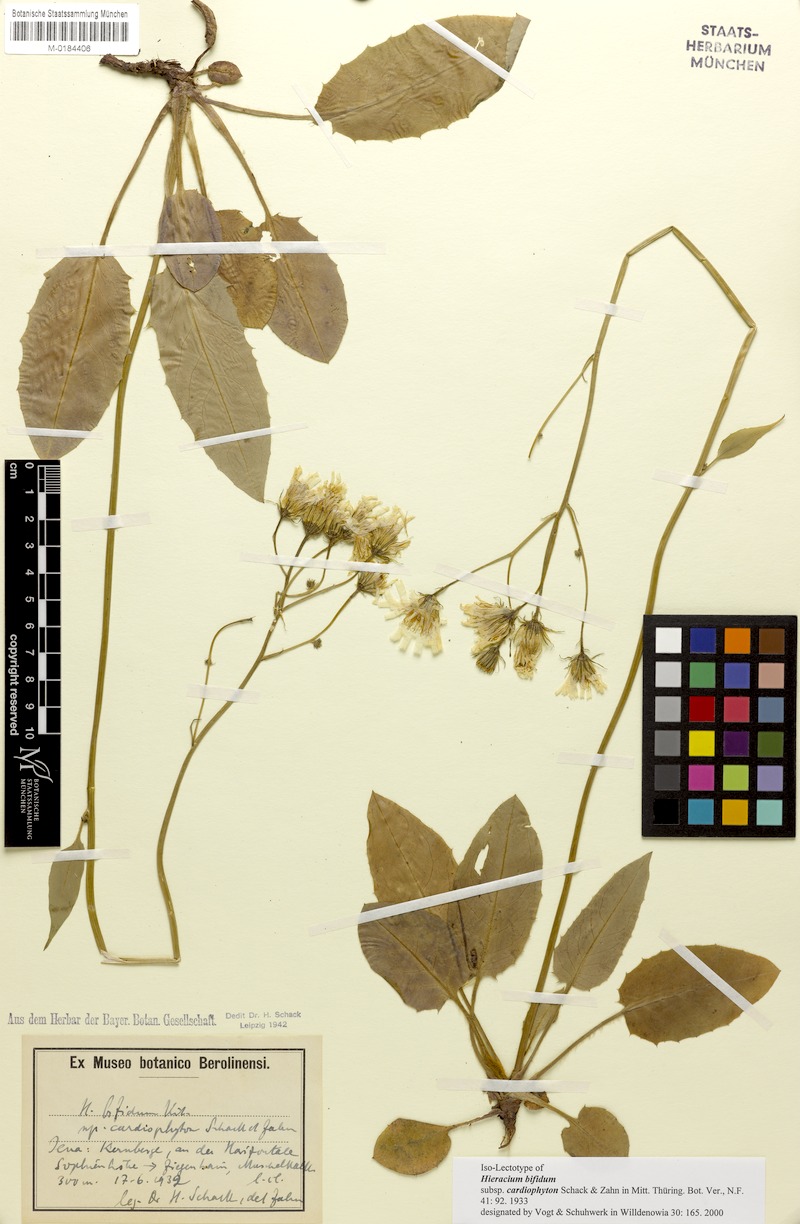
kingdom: Plantae
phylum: Tracheophyta
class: Magnoliopsida
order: Asterales
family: Asteraceae
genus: Hieracium
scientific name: Hieracium bifidum
